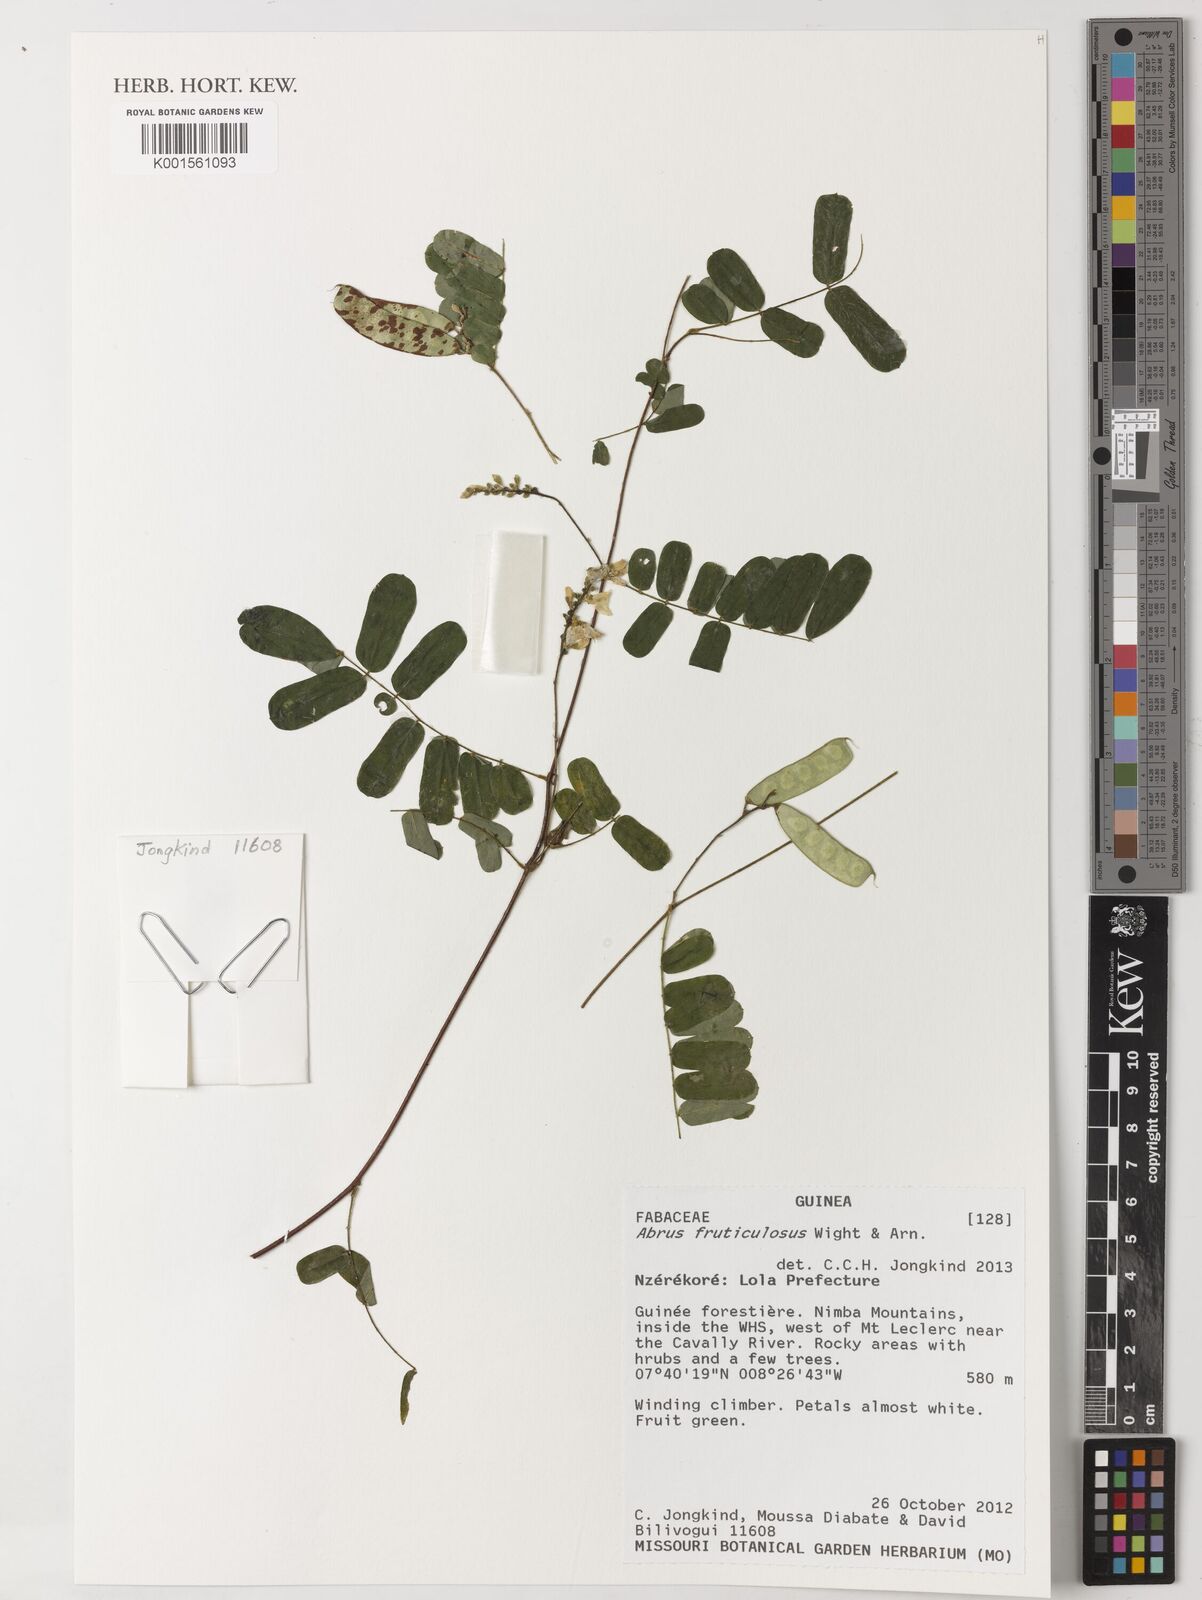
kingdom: Plantae
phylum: Tracheophyta
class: Magnoliopsida
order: Fabales
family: Fabaceae
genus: Abrus
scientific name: Abrus fruticulosus
